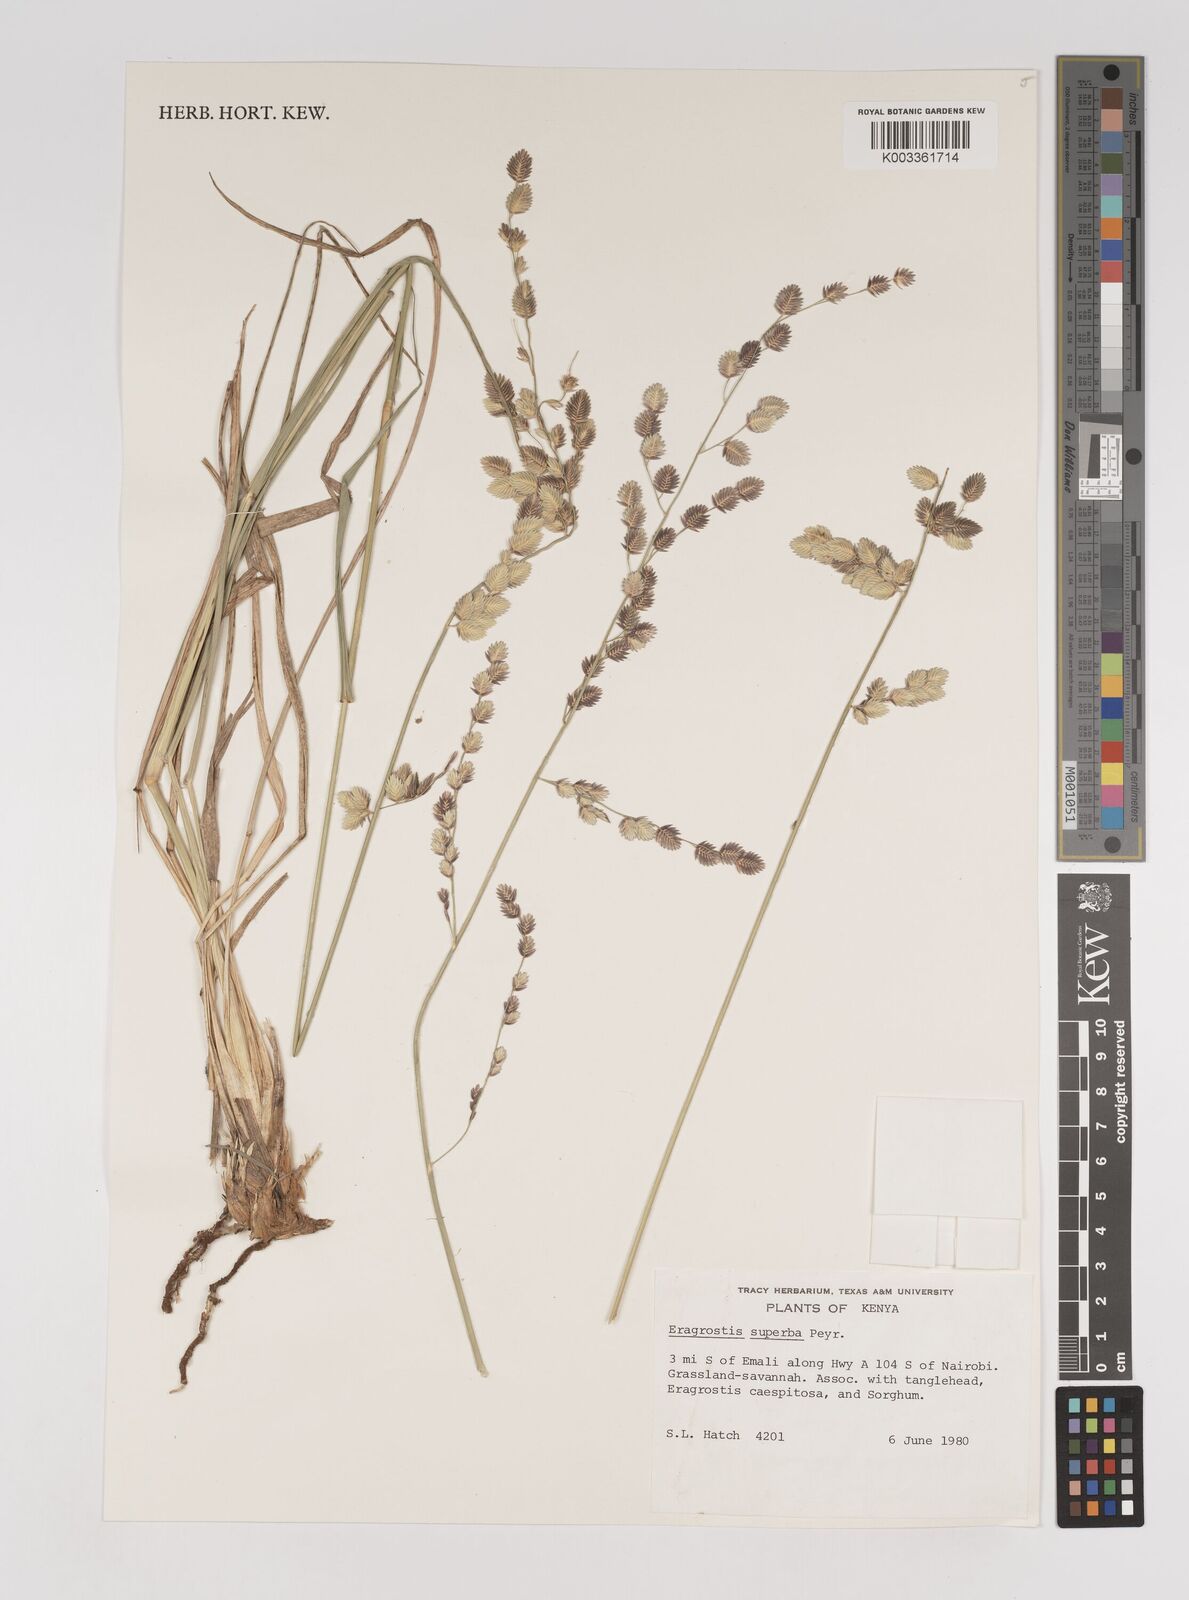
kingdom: Plantae
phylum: Tracheophyta
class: Liliopsida
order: Poales
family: Poaceae
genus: Eragrostis
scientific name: Eragrostis superba
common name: Wilman lovegrass
